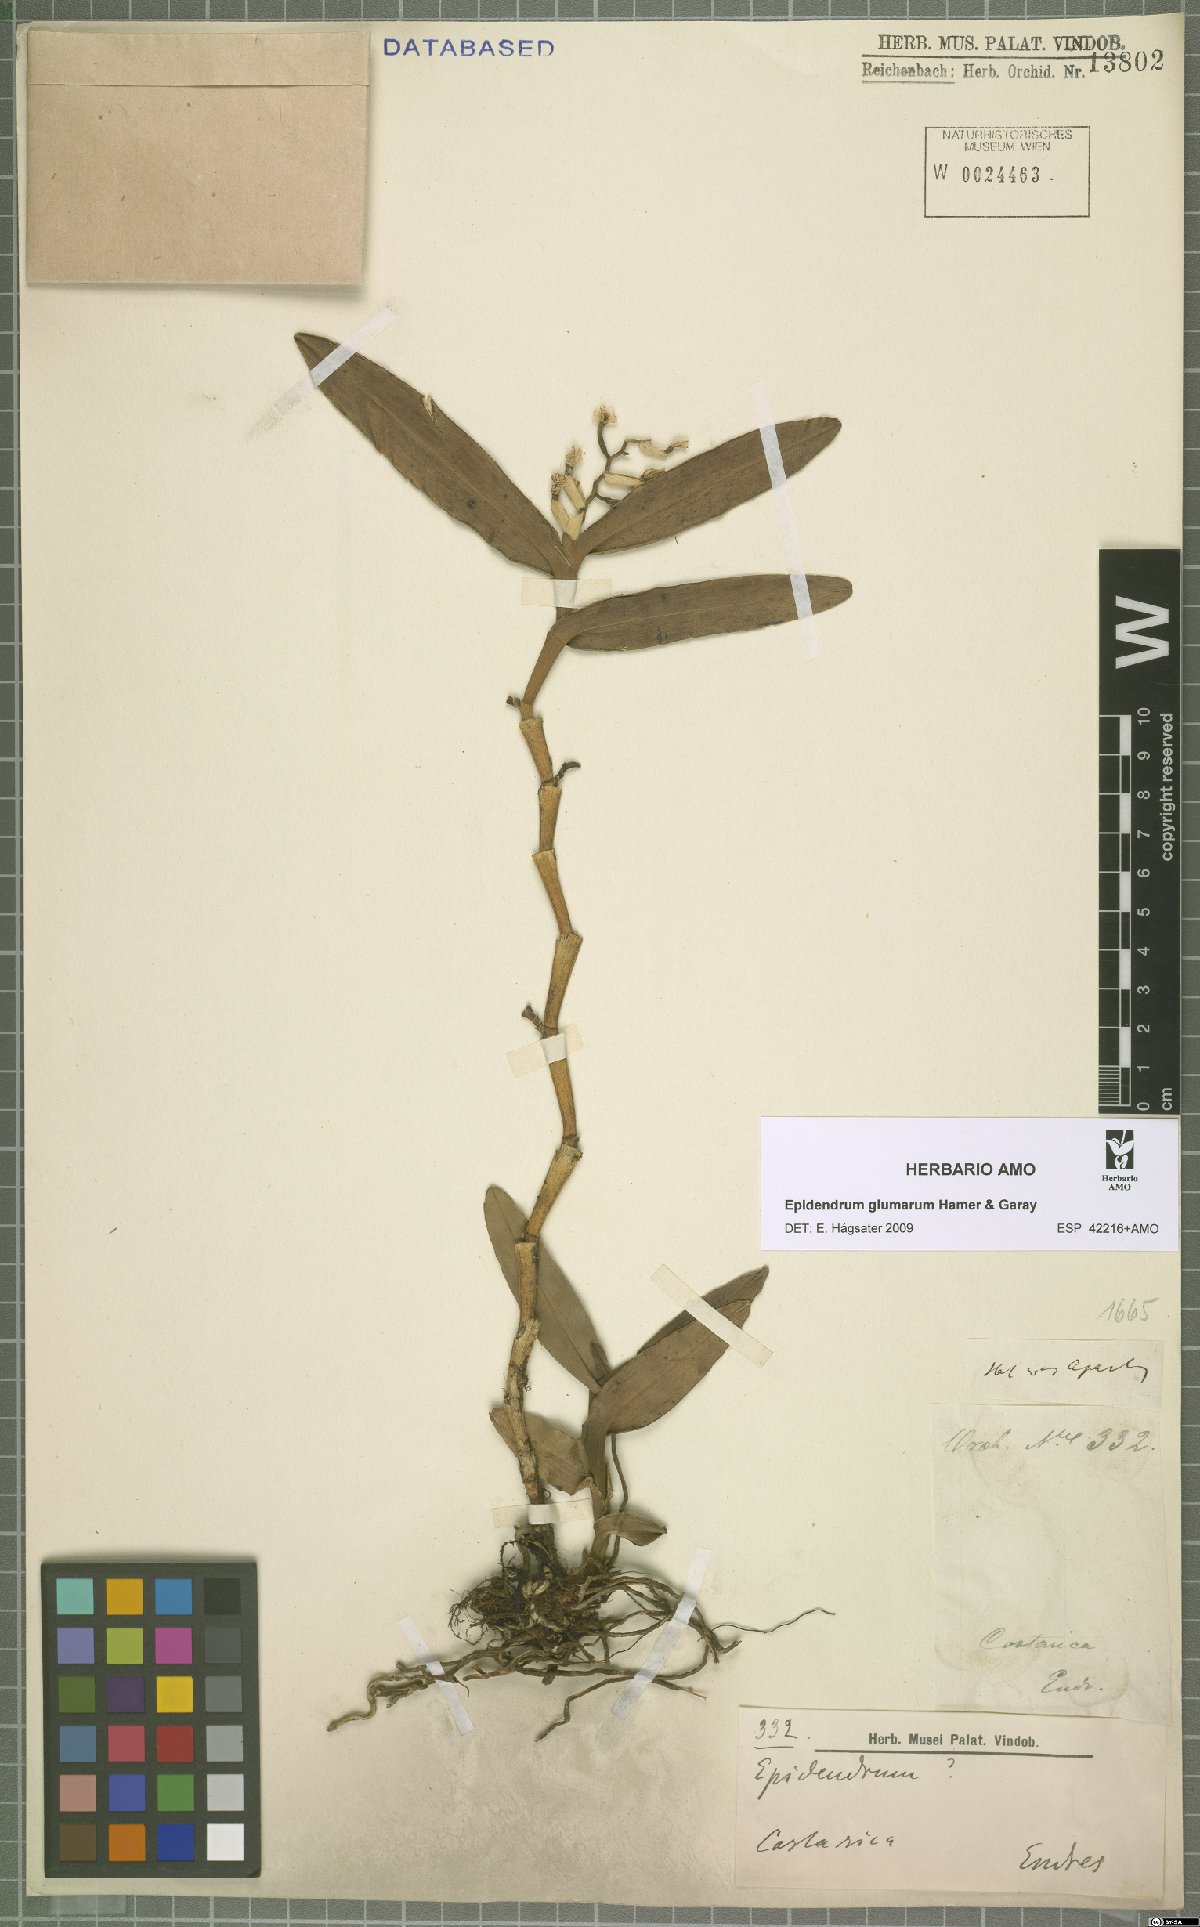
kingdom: Plantae
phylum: Tracheophyta
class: Liliopsida
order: Asparagales
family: Orchidaceae
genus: Epidendrum
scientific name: Epidendrum glumarum
